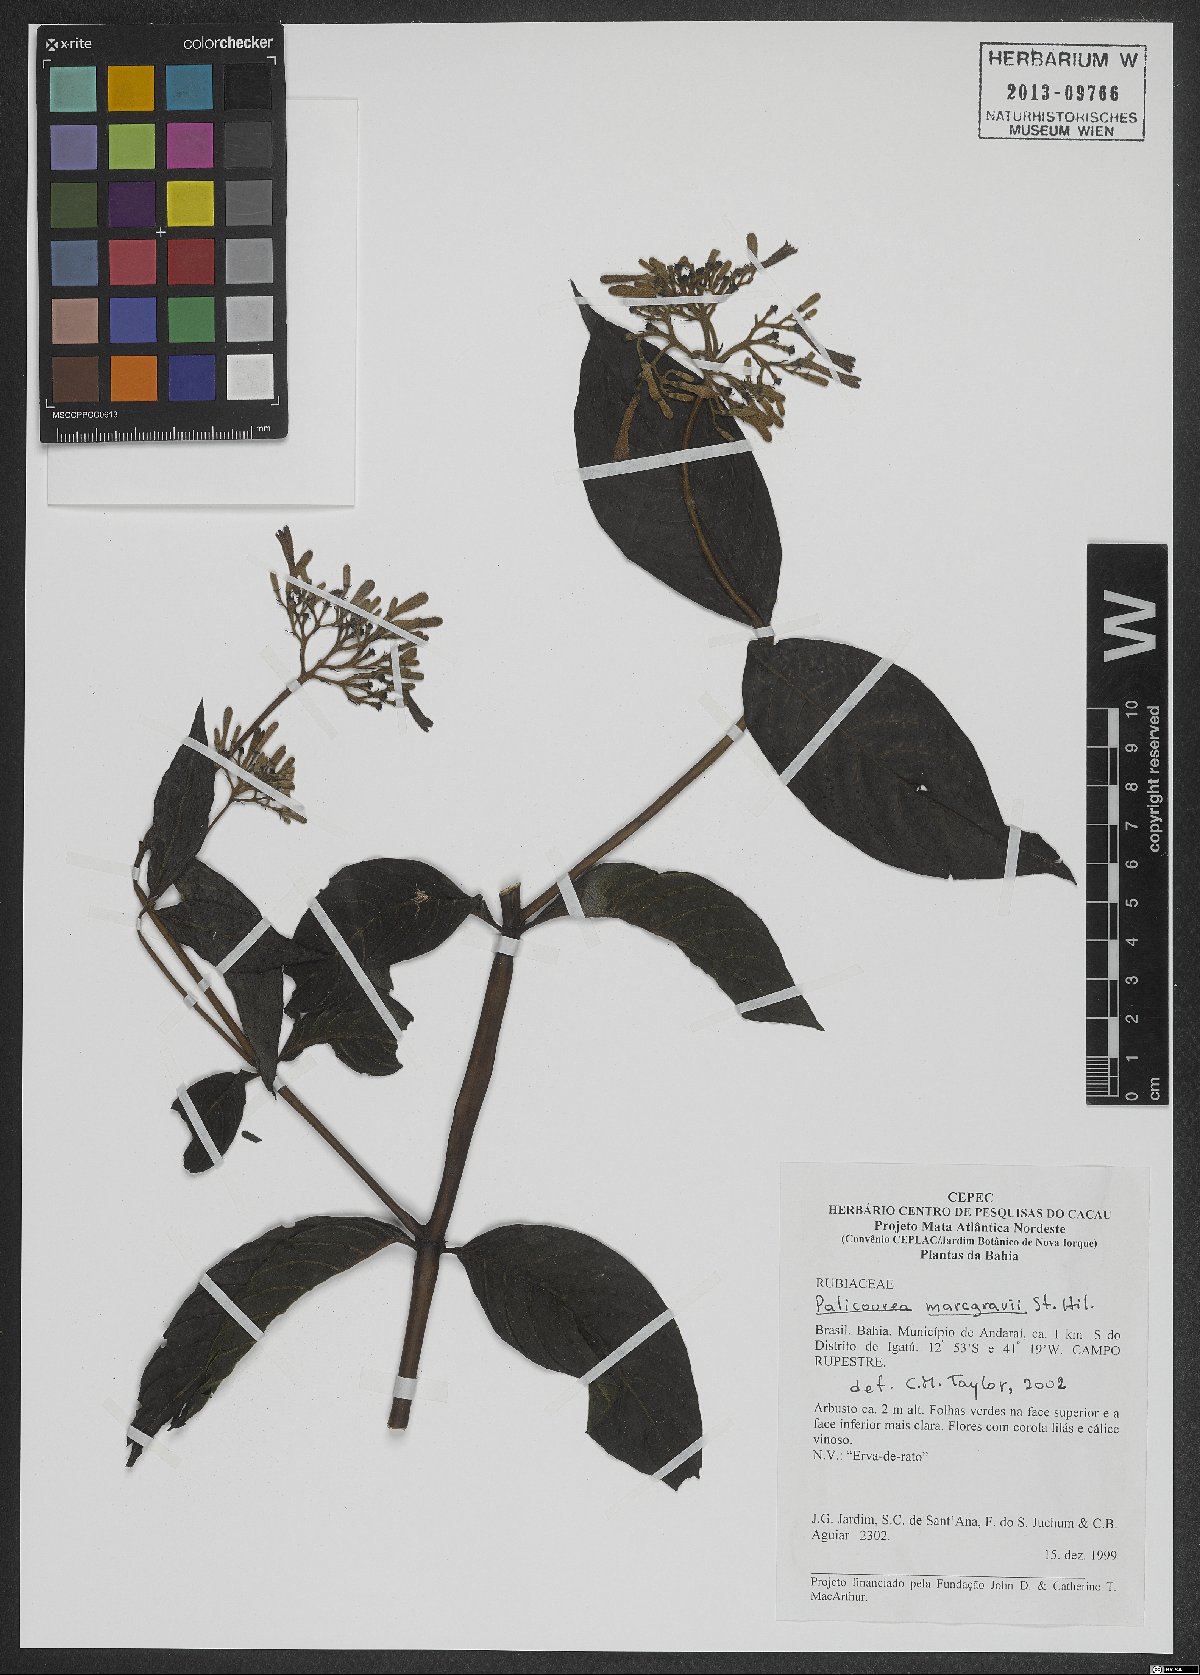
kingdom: Plantae
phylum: Tracheophyta
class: Magnoliopsida
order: Gentianales
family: Rubiaceae
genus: Palicourea
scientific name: Palicourea marcgravii
